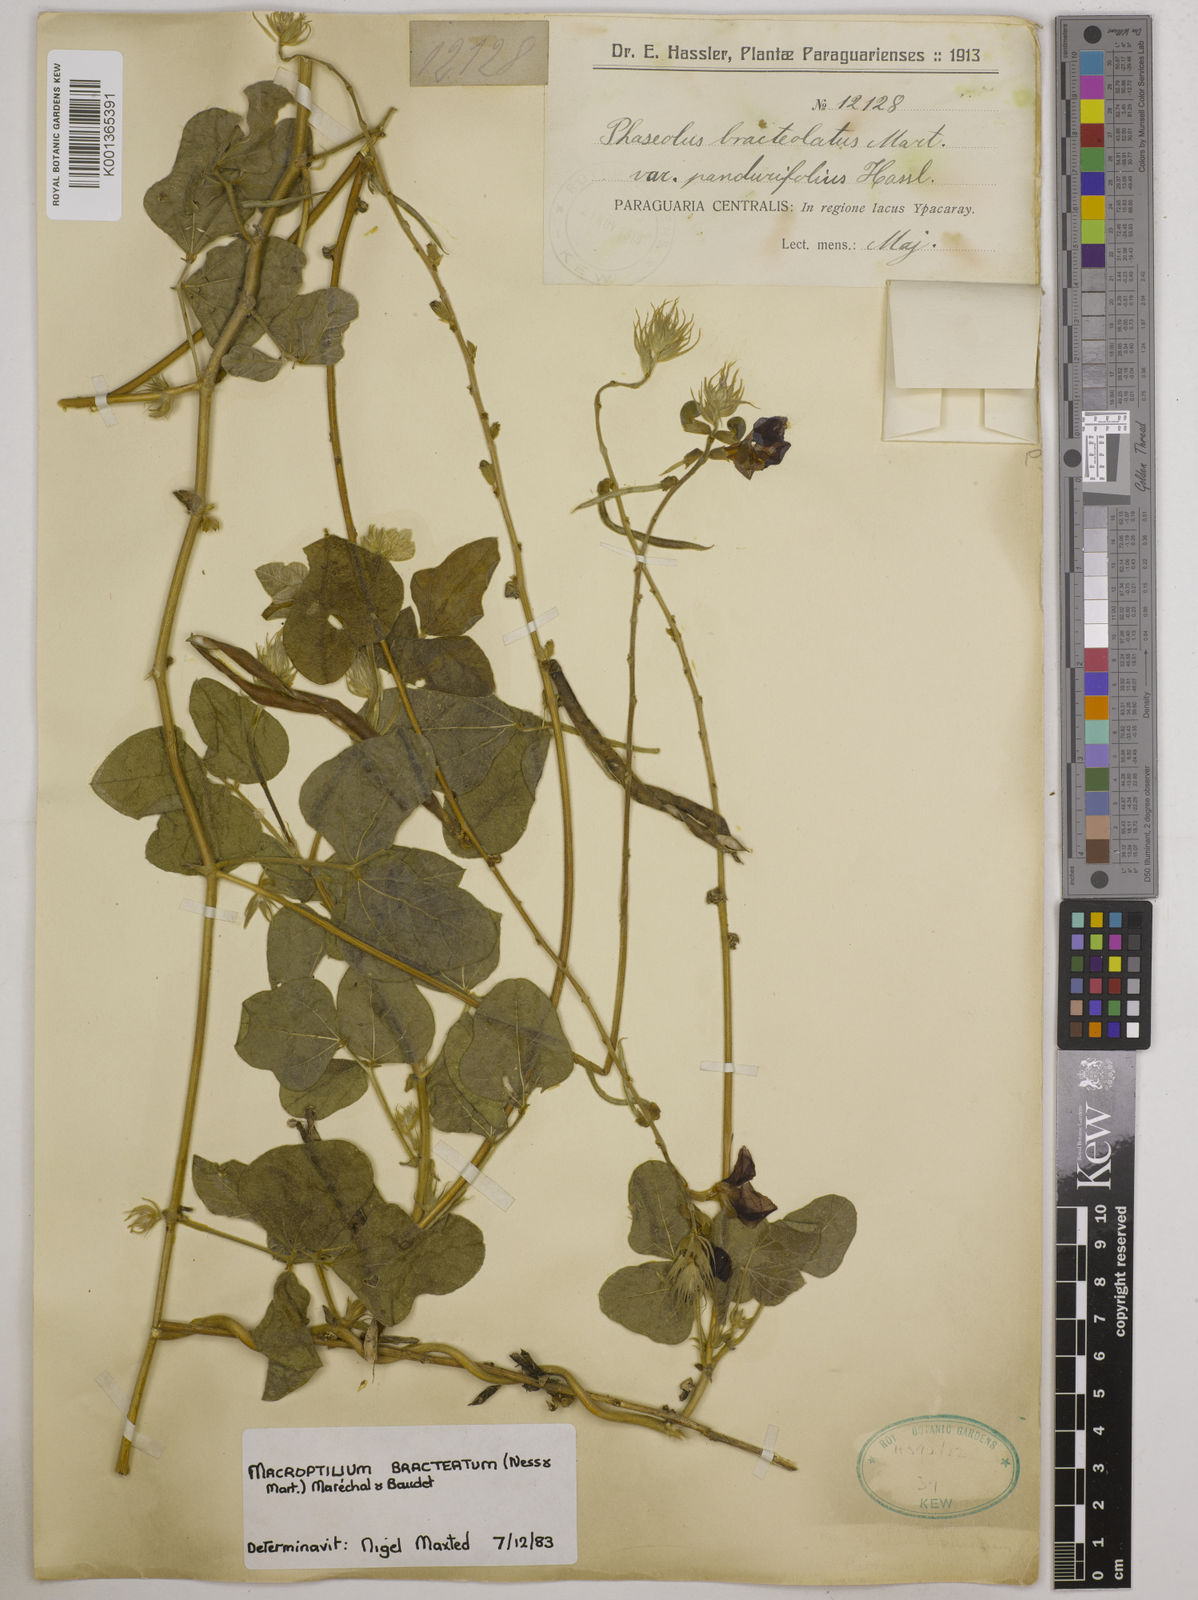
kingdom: Plantae
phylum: Tracheophyta
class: Magnoliopsida
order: Fabales
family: Fabaceae
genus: Macroptilium
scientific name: Macroptilium bracteatum
